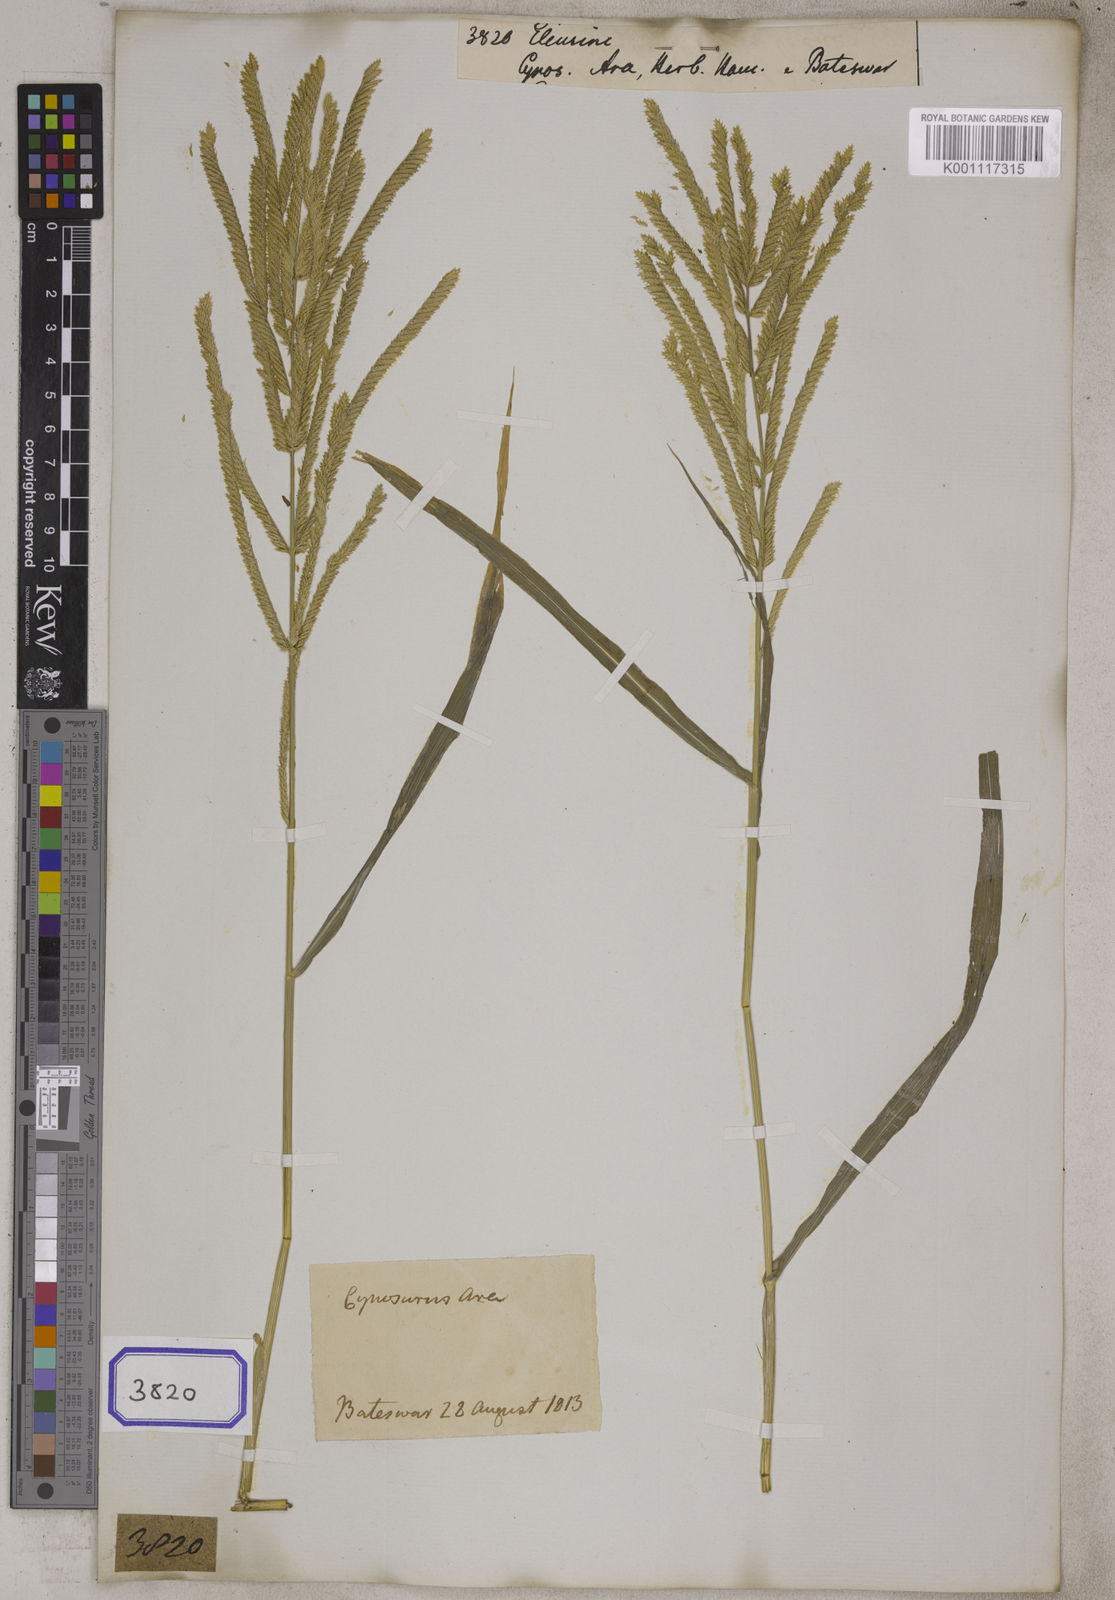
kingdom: Plantae
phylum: Tracheophyta
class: Liliopsida
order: Poales
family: Poaceae
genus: Eleusine
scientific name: Eleusine
